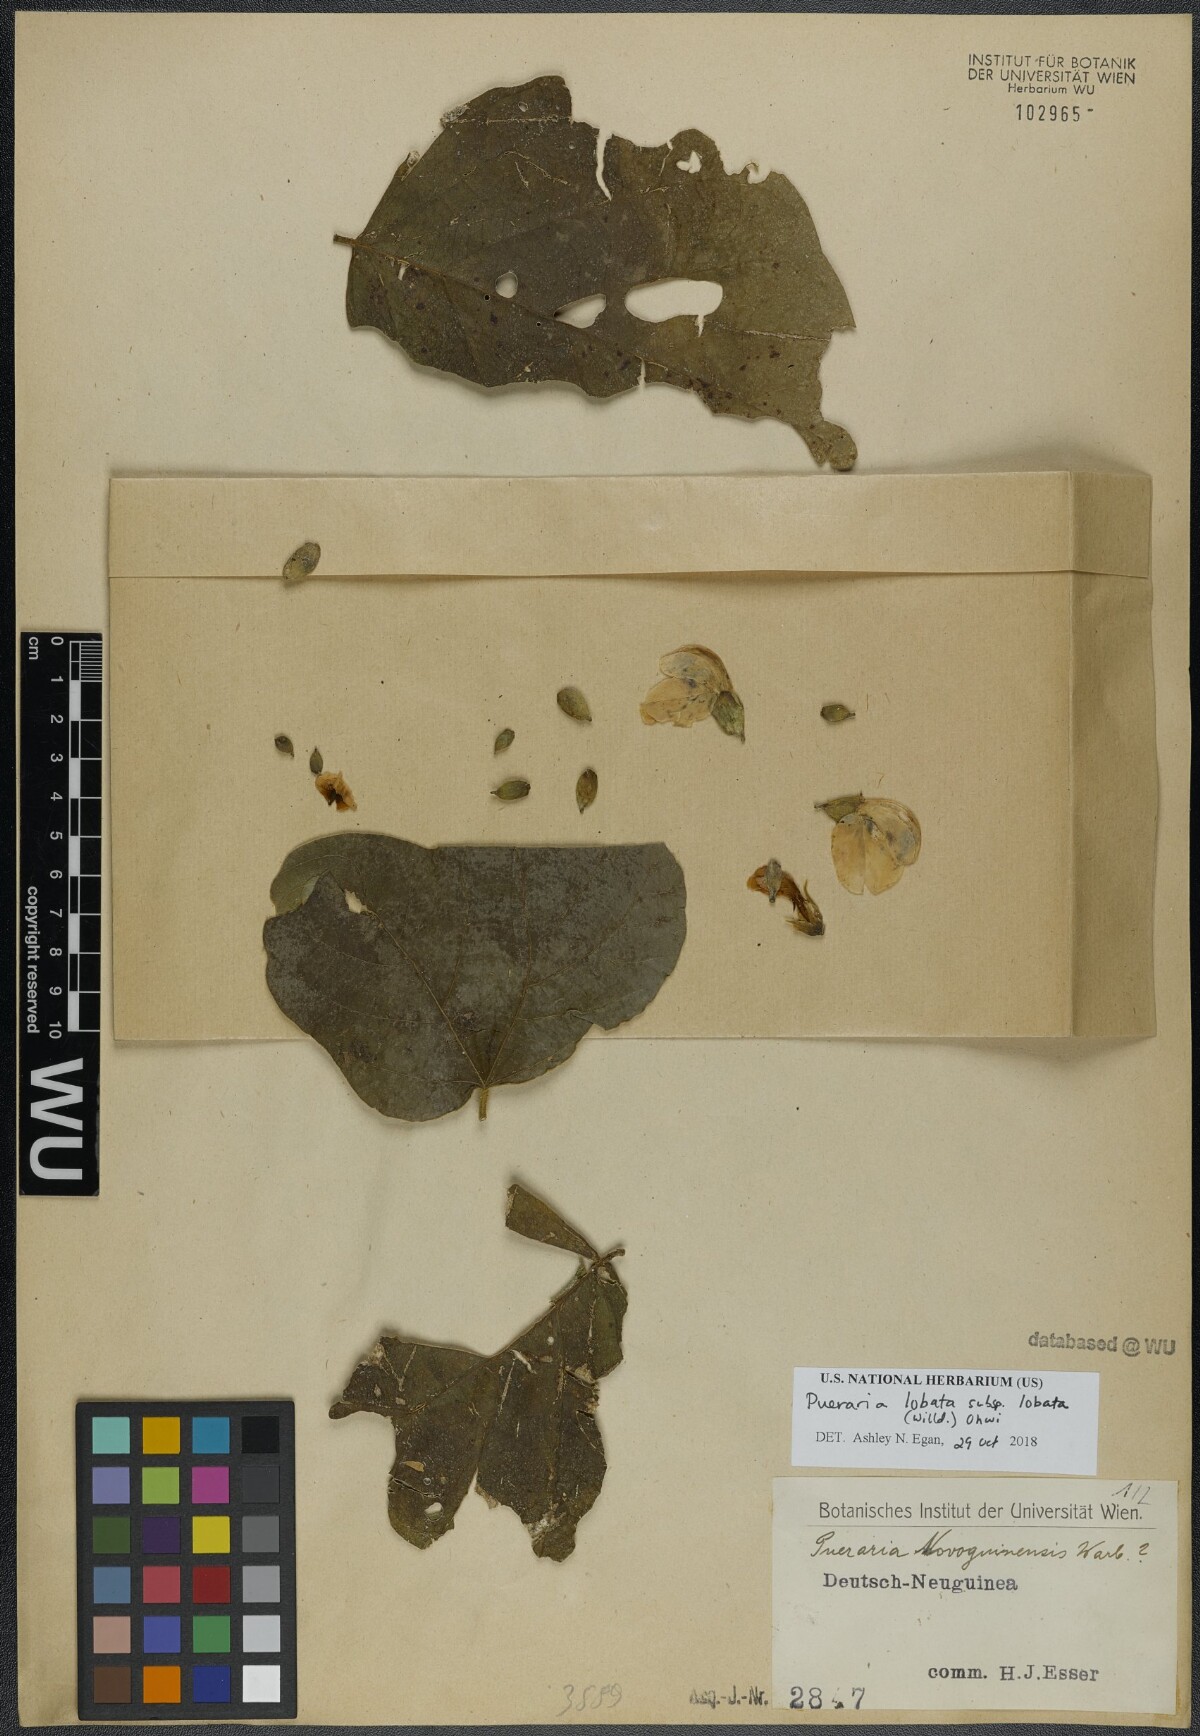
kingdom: Plantae
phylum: Tracheophyta
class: Magnoliopsida
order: Fabales
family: Fabaceae
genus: Pueraria
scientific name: Pueraria montana
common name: Kudzu
